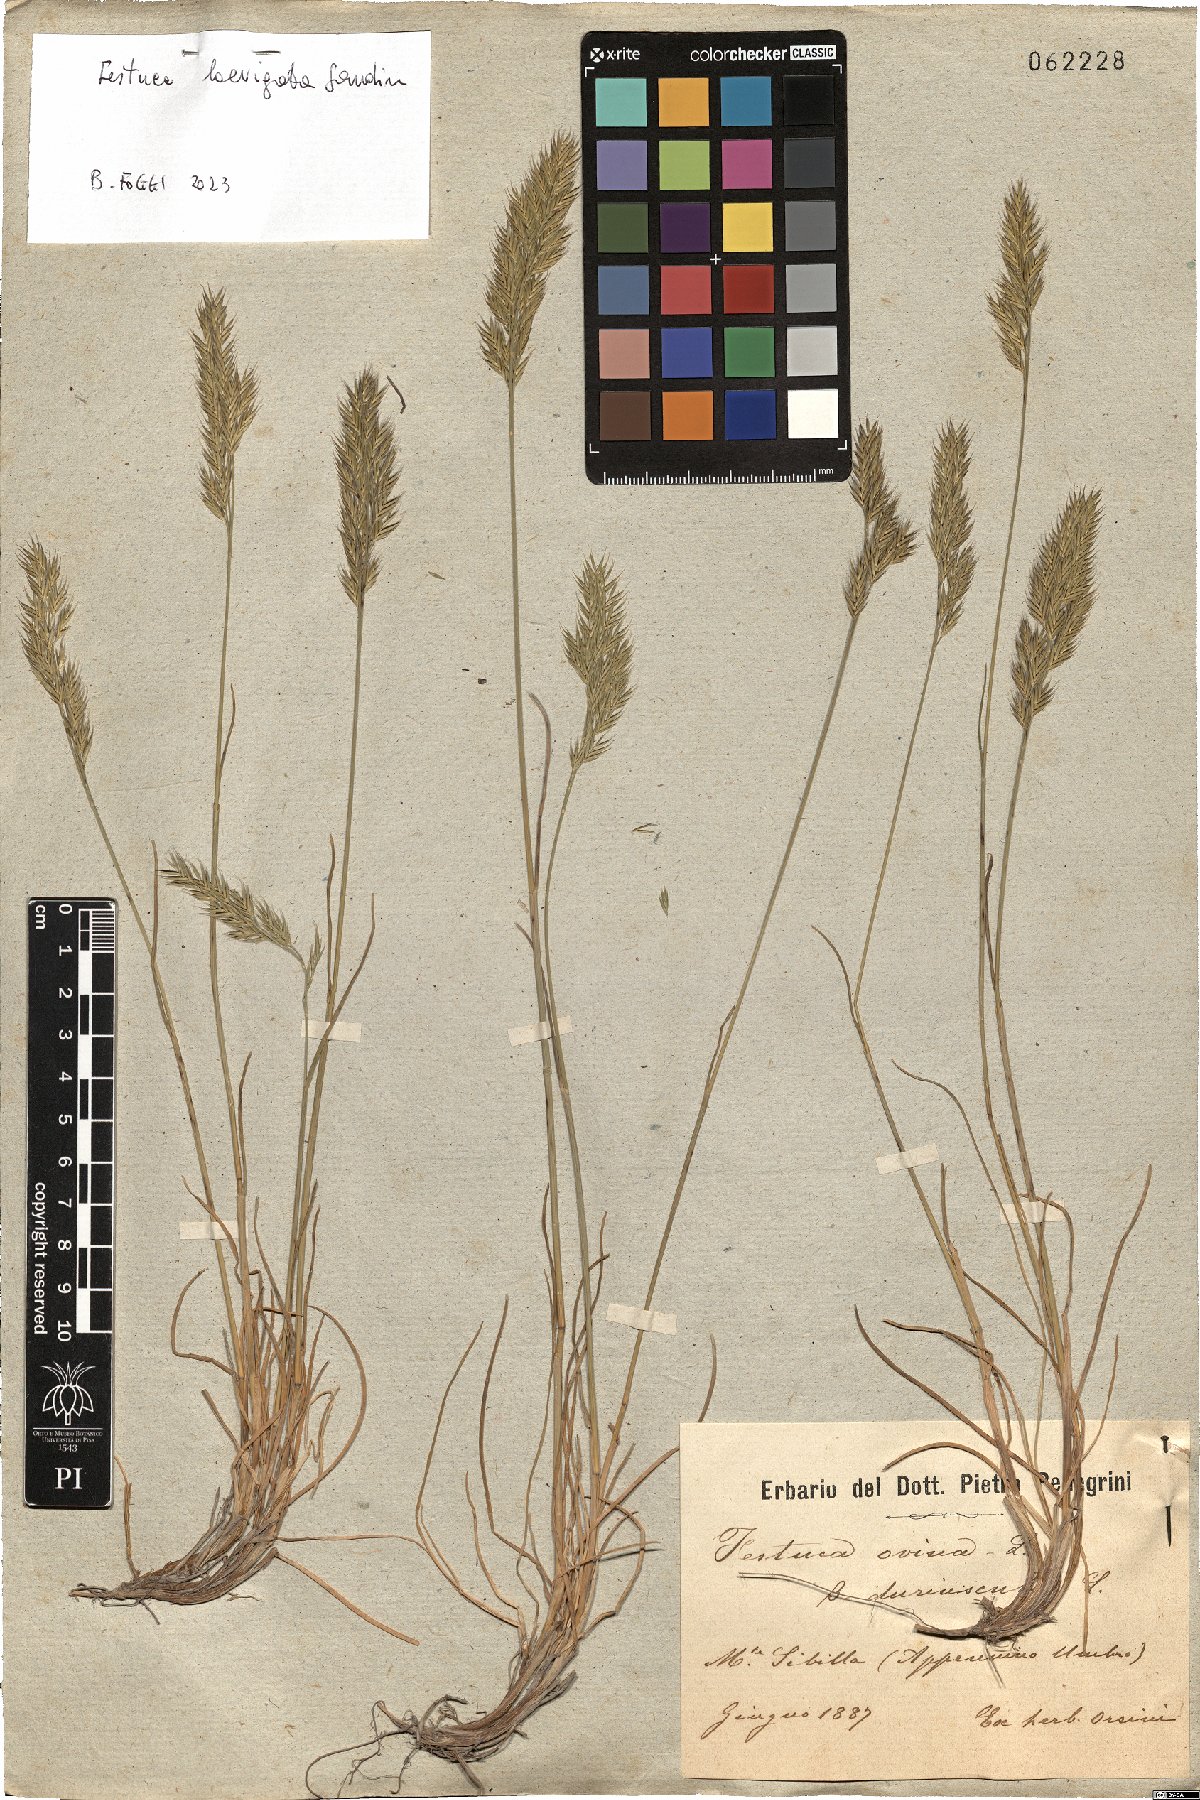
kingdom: Plantae
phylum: Tracheophyta
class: Liliopsida
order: Poales
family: Poaceae
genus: Festuca
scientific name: Festuca laevigata
